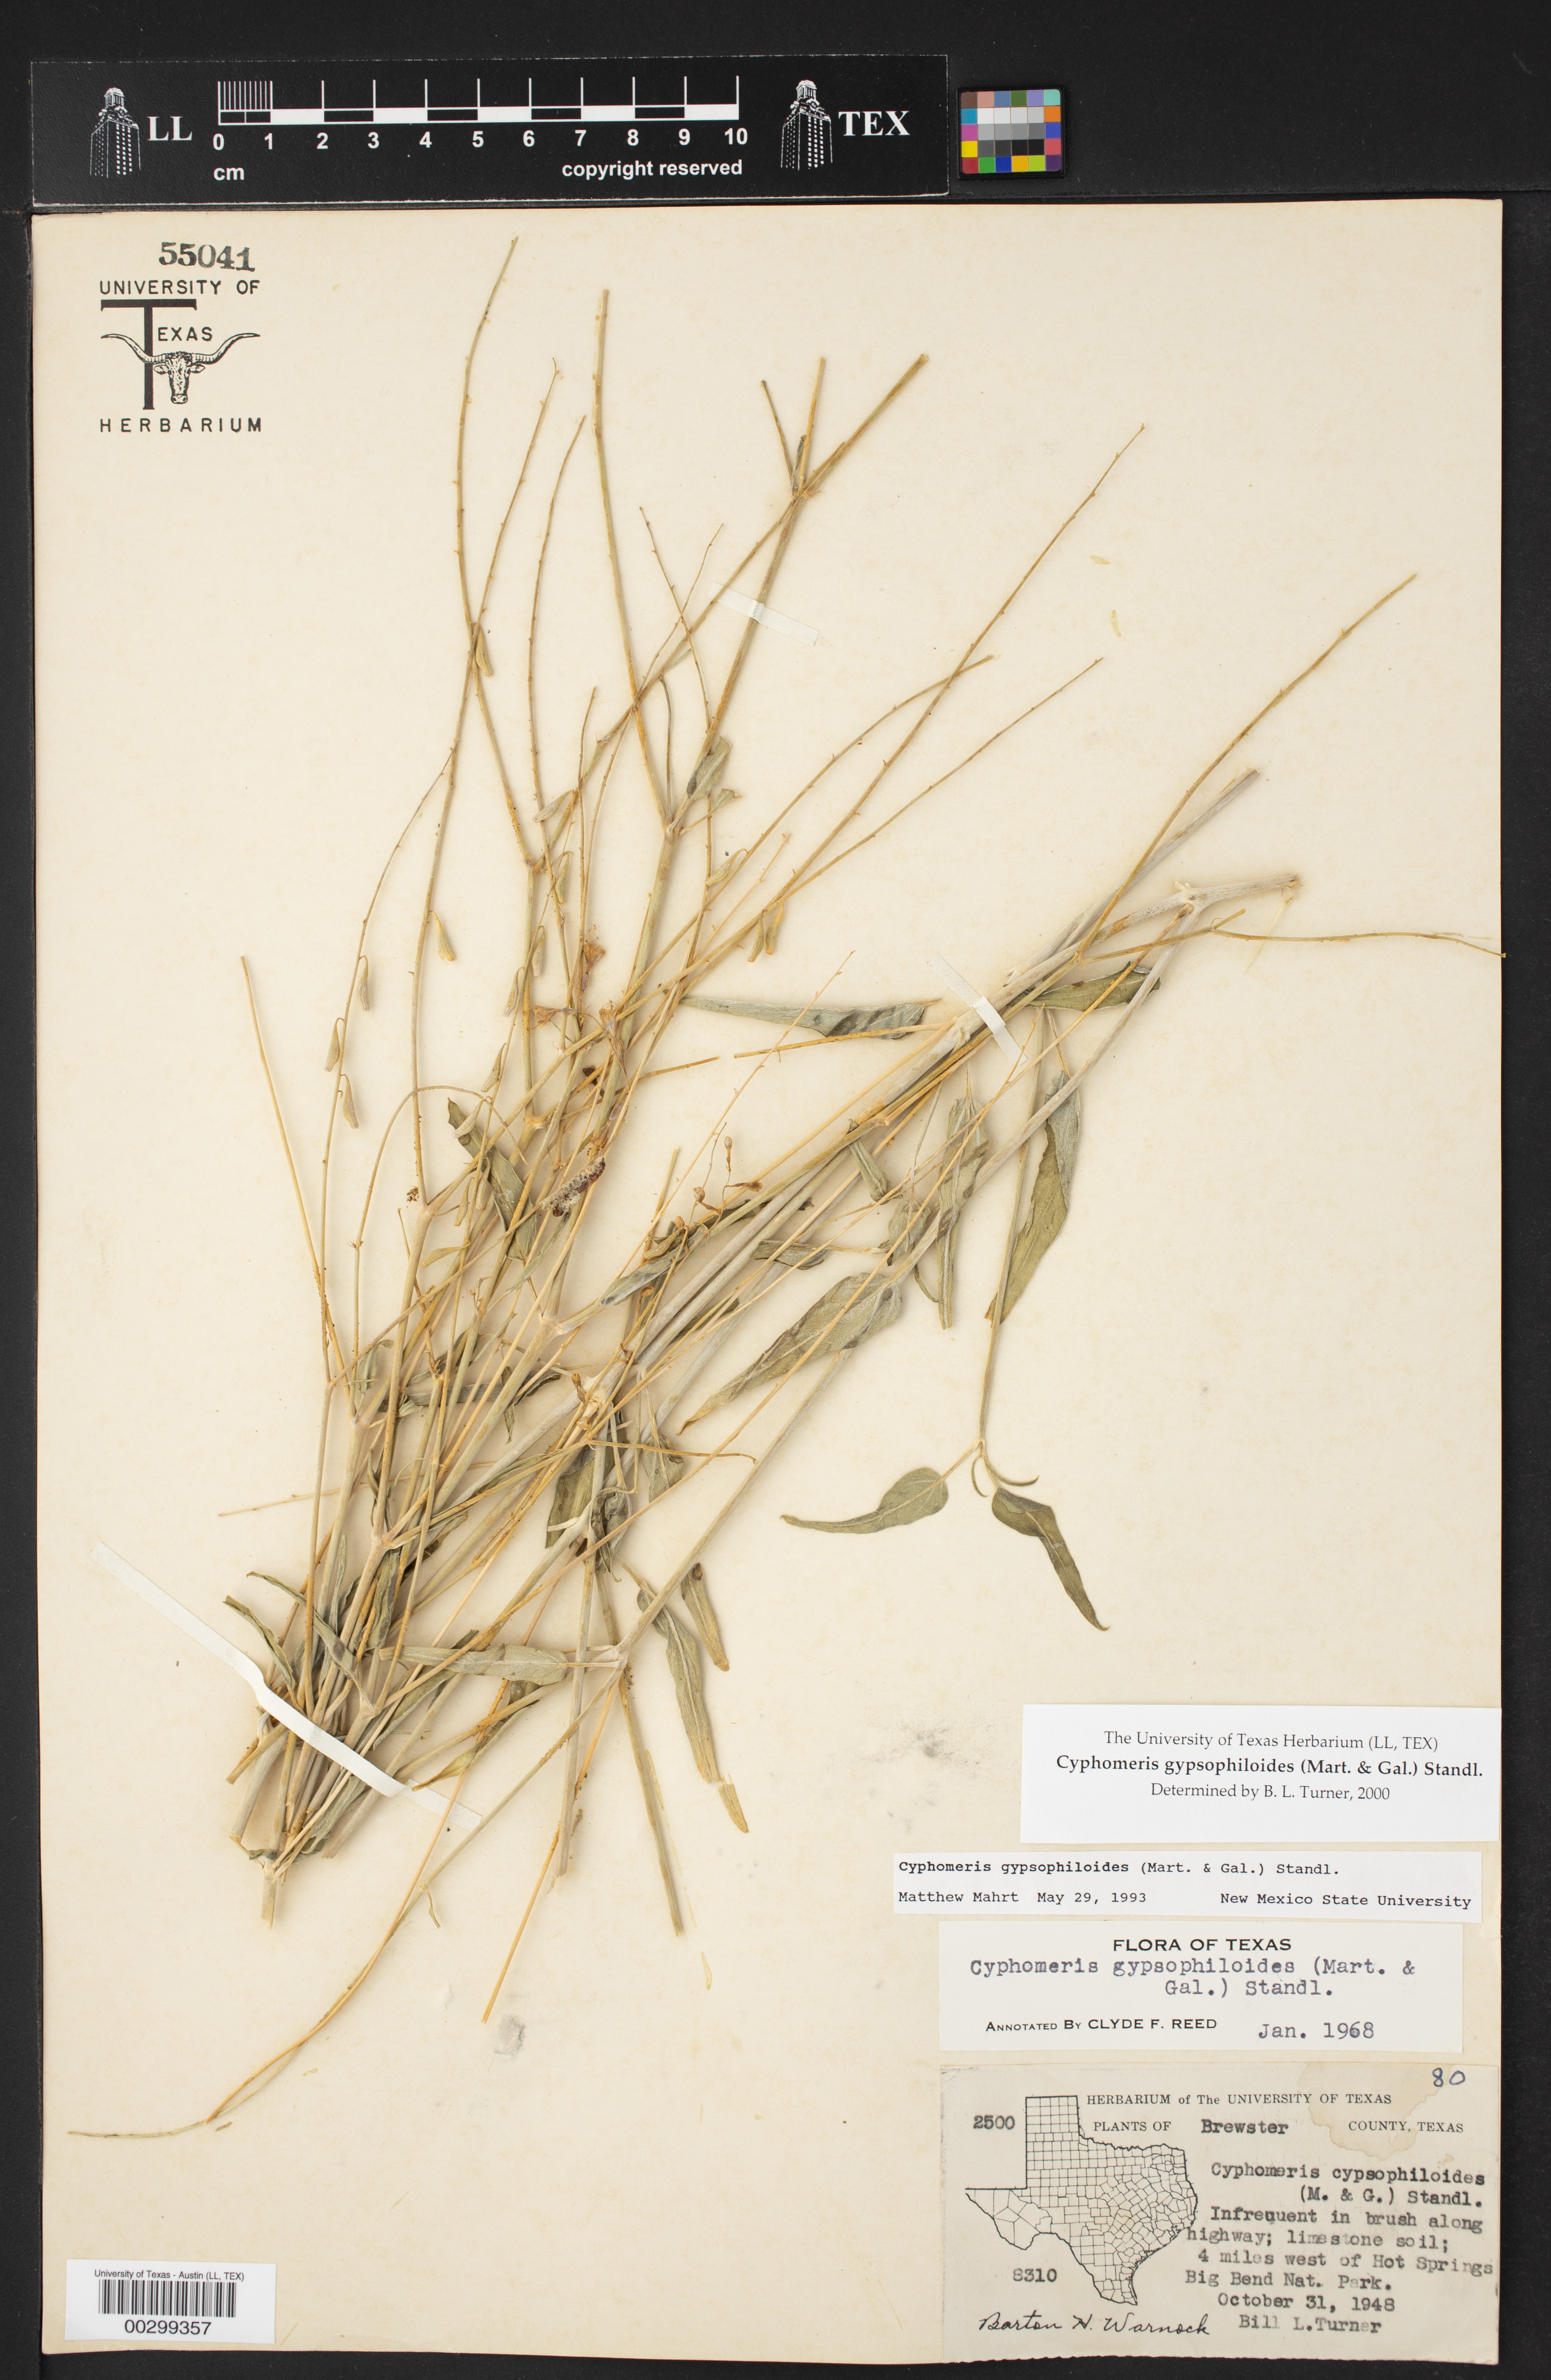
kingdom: Plantae
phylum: Tracheophyta
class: Magnoliopsida
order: Caryophyllales
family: Nyctaginaceae
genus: Cyphomeris
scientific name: Cyphomeris gypsophiloides
